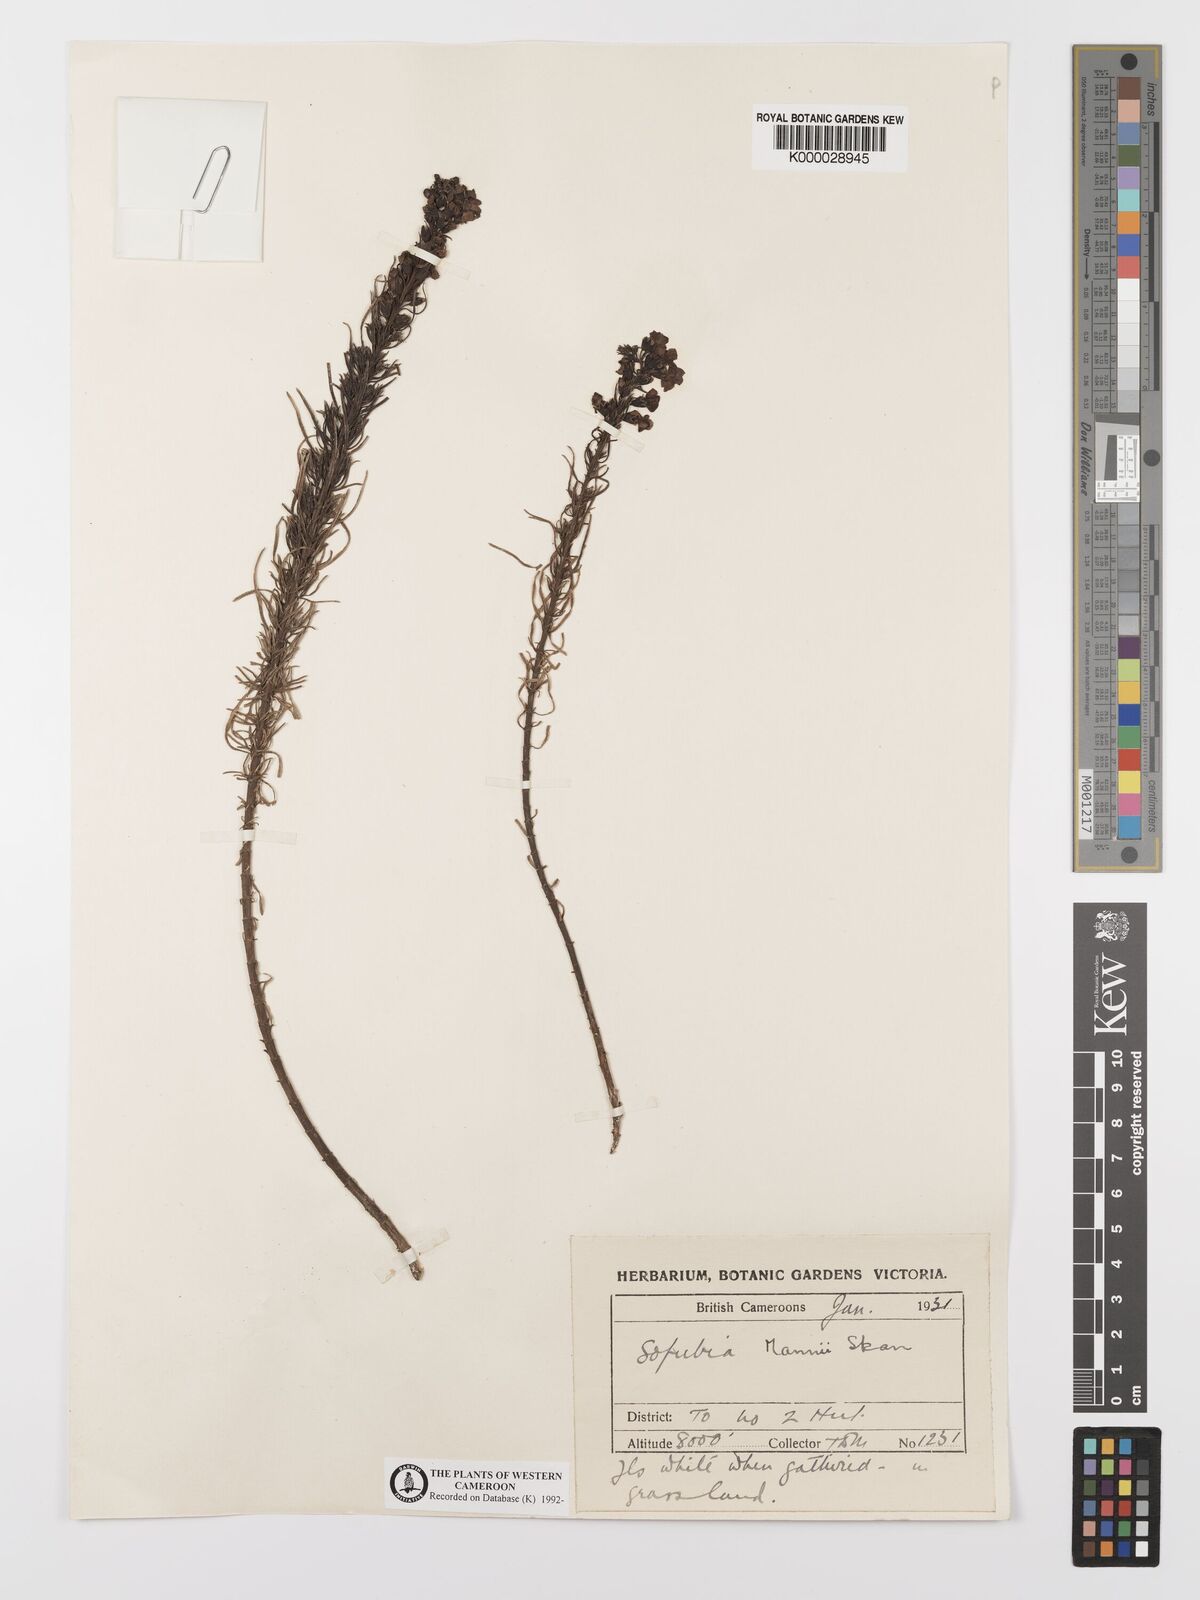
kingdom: Plantae
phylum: Tracheophyta
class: Magnoliopsida
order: Lamiales
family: Orobanchaceae
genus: Sopubia
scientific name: Sopubia mannii
